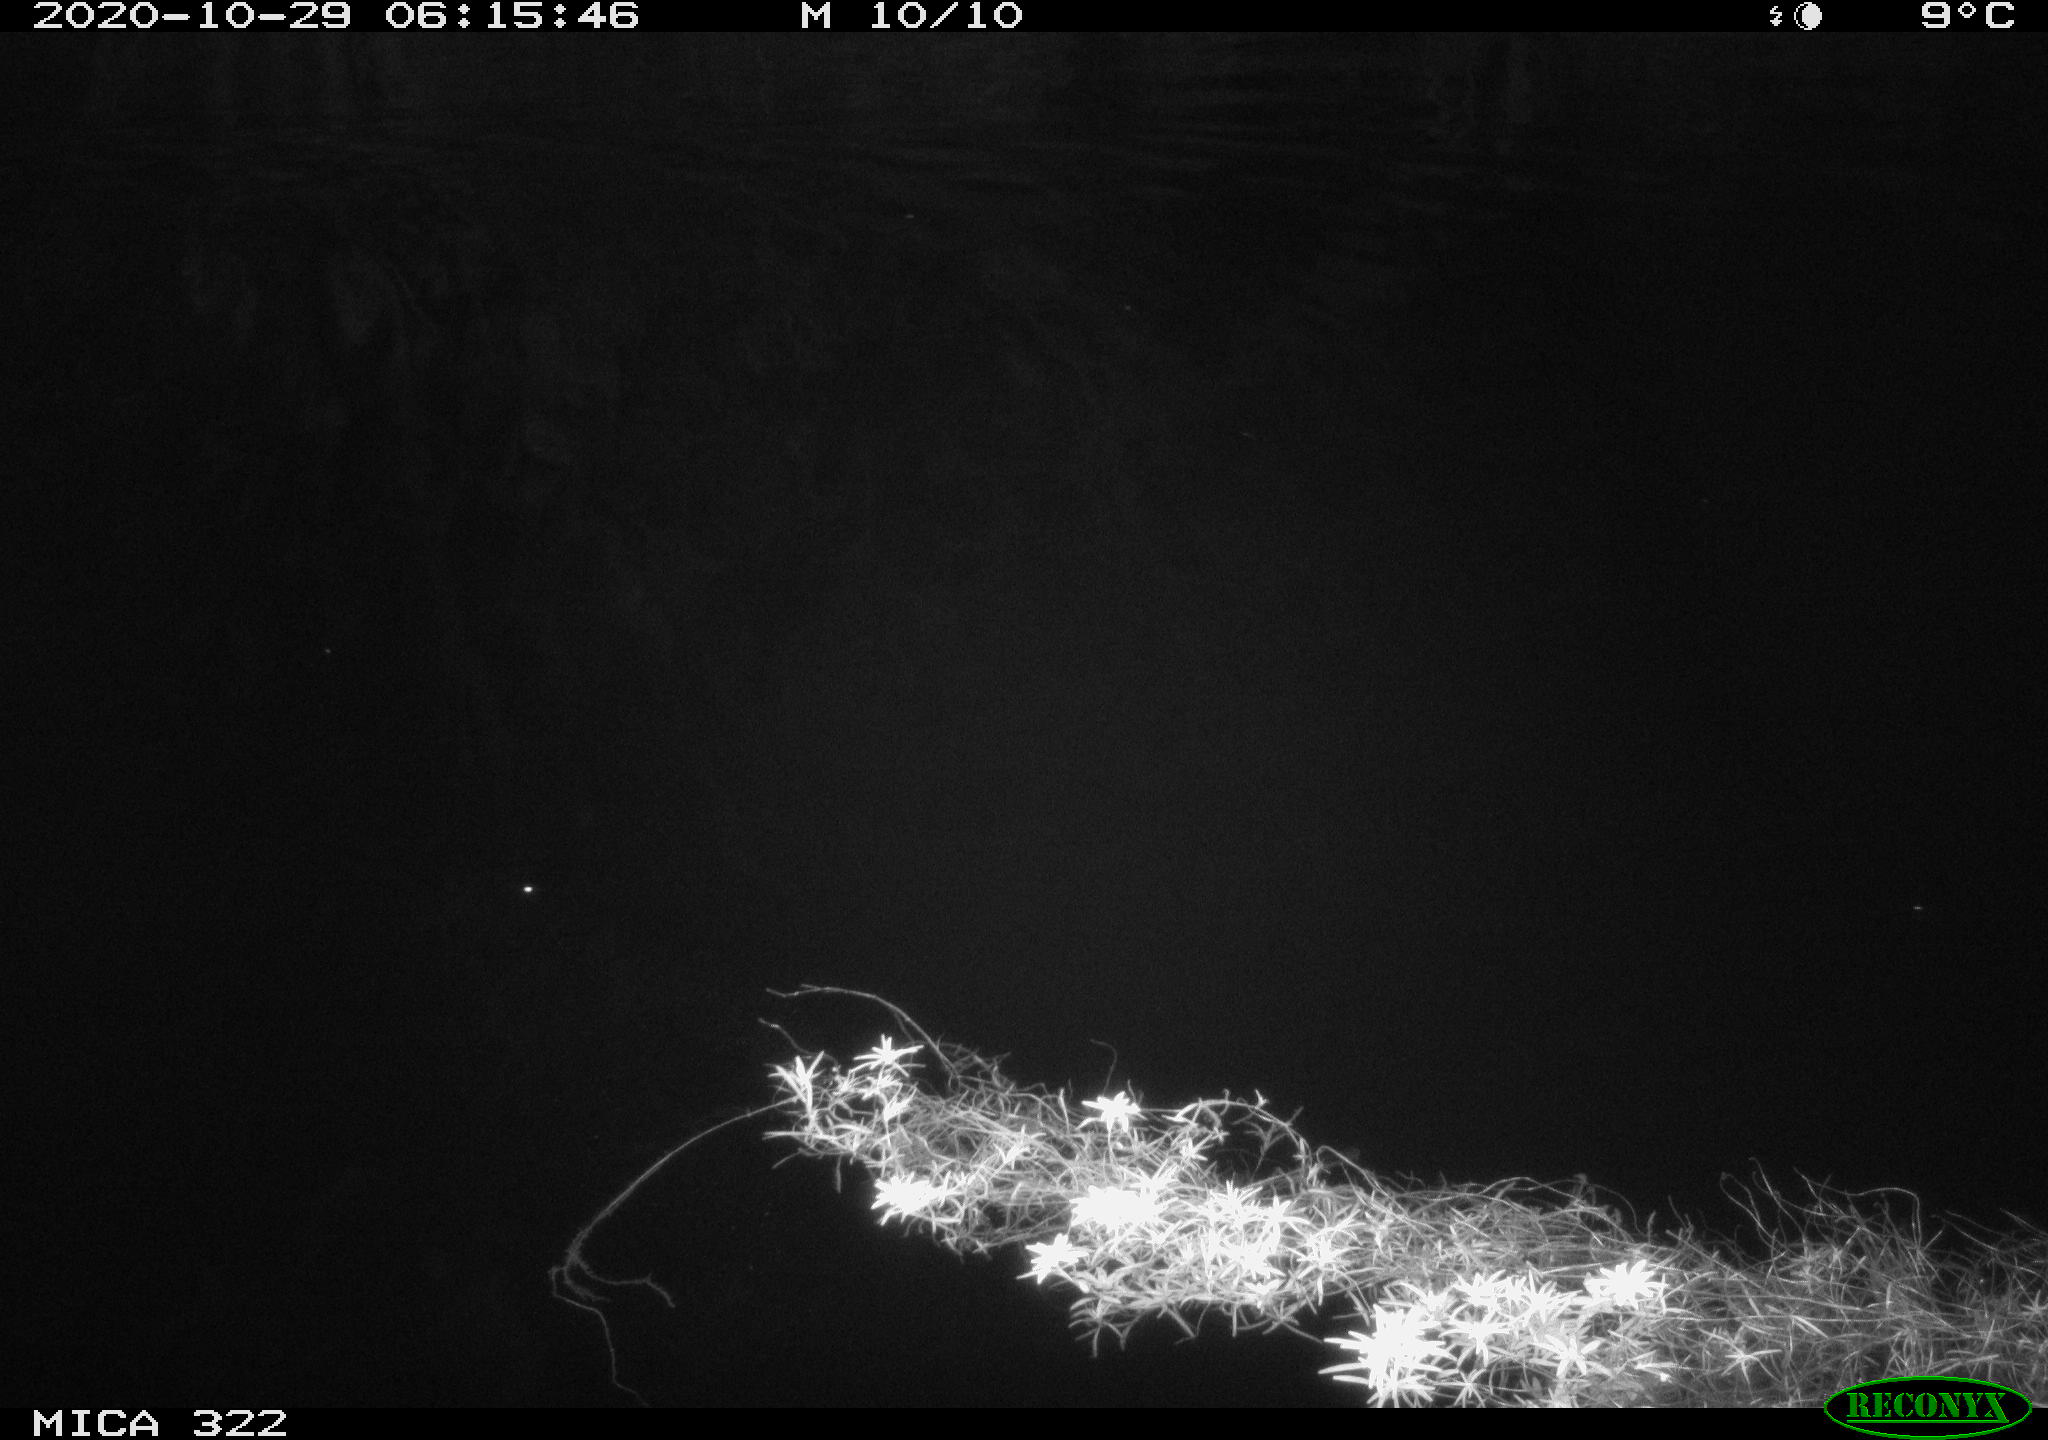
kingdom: Animalia
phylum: Chordata
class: Mammalia
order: Rodentia
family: Cricetidae
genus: Ondatra
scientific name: Ondatra zibethicus
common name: Muskrat
